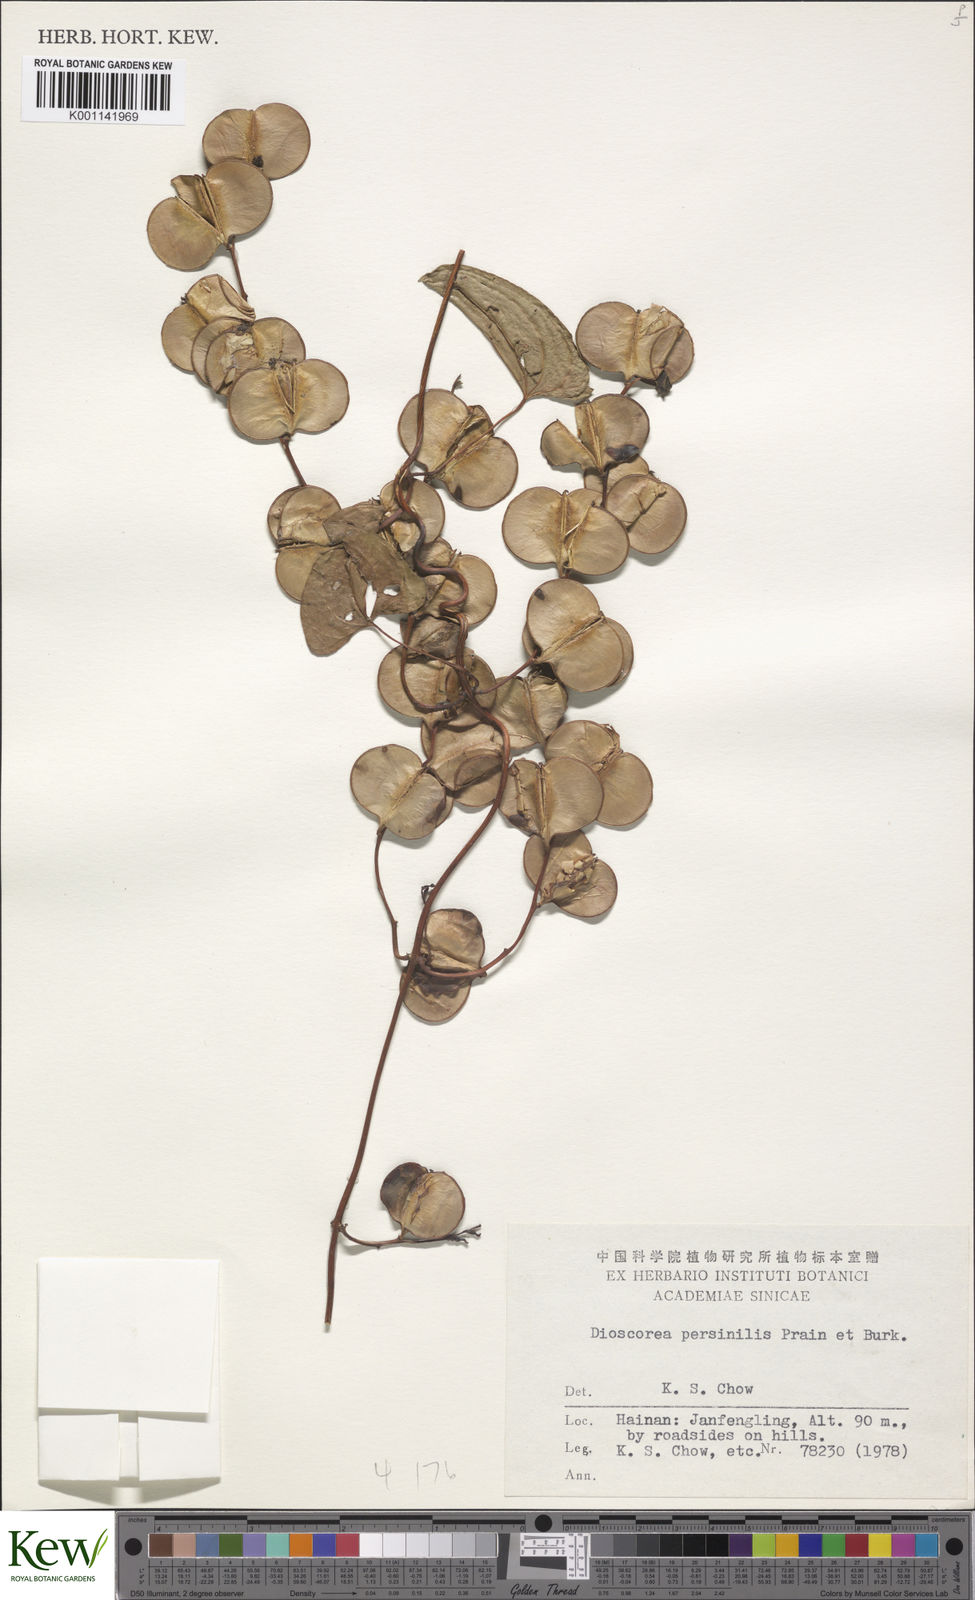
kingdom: Plantae
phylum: Tracheophyta
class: Liliopsida
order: Dioscoreales
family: Dioscoreaceae
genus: Dioscorea
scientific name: Dioscorea hamiltonii
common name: Mountain yam
